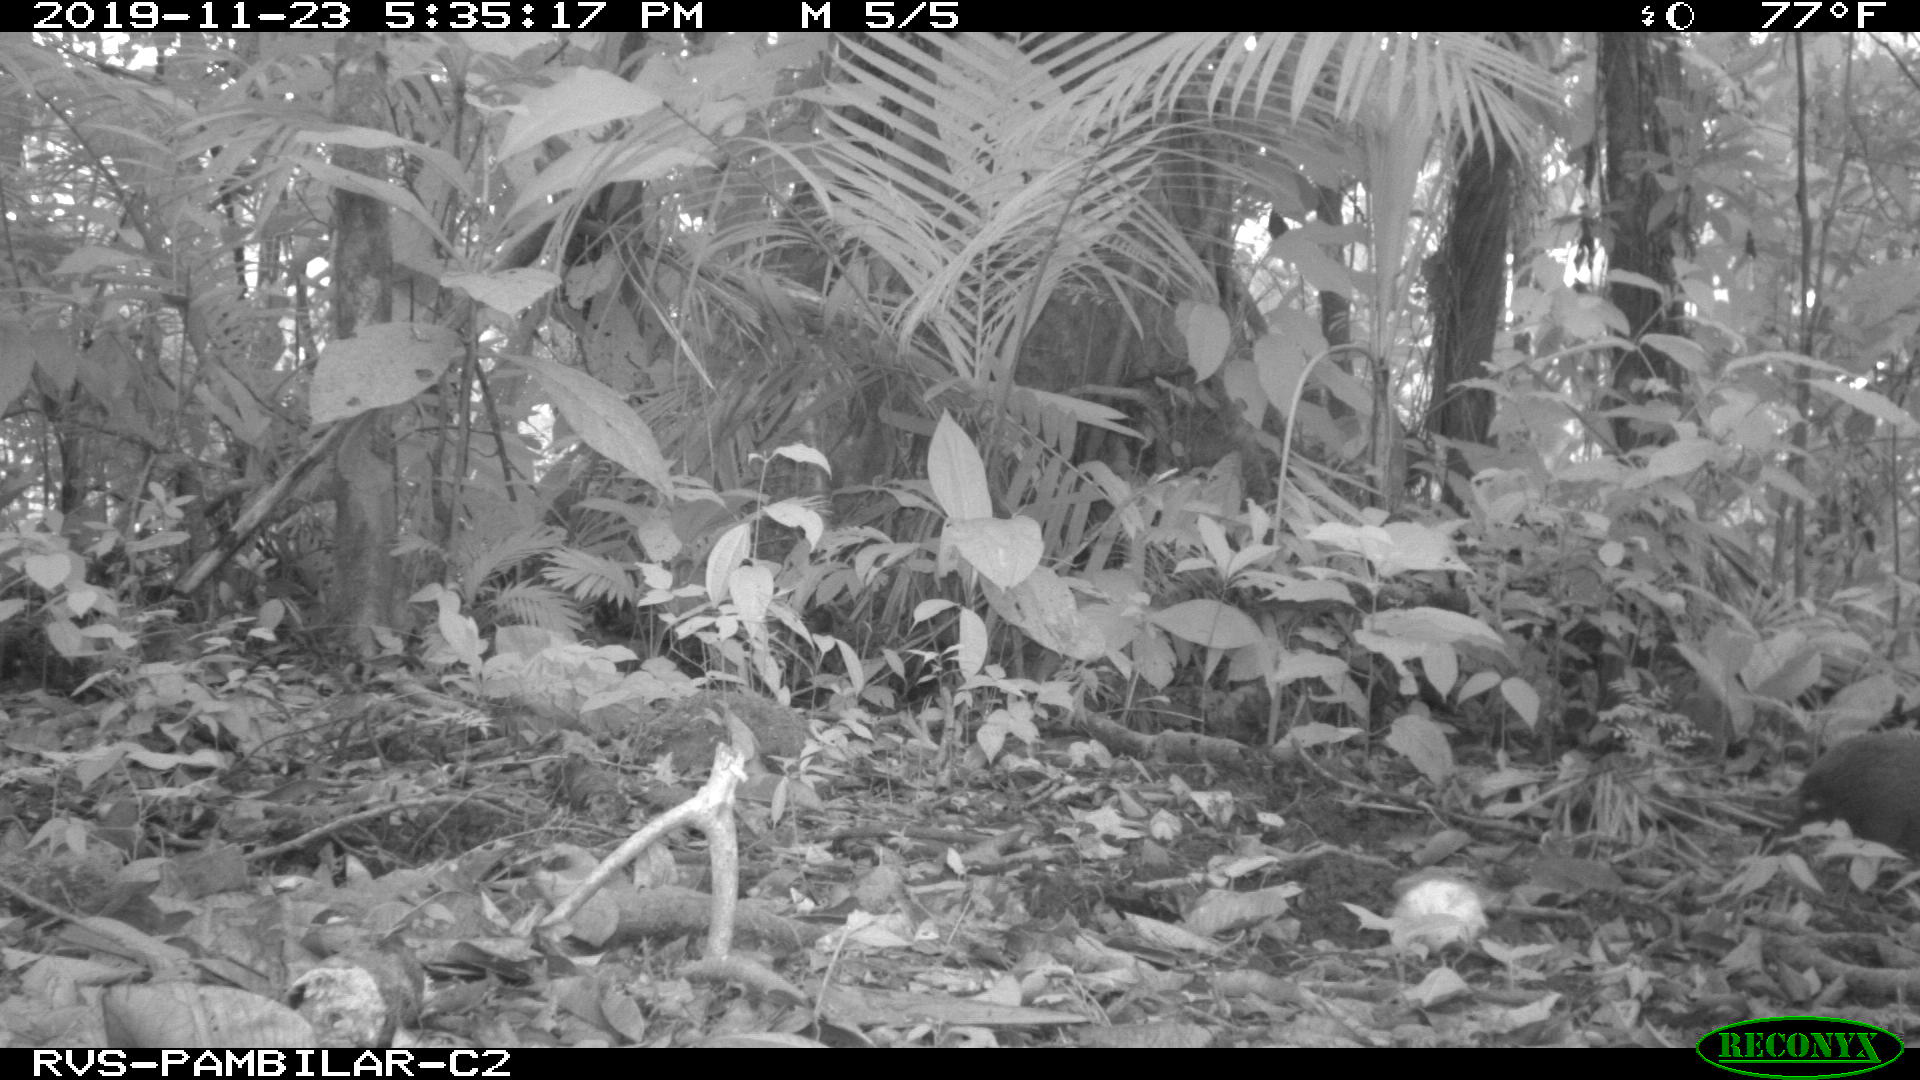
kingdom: Animalia
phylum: Chordata
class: Mammalia
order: Rodentia
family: Dasyproctidae
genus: Dasyprocta
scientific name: Dasyprocta punctata
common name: Central american agouti
